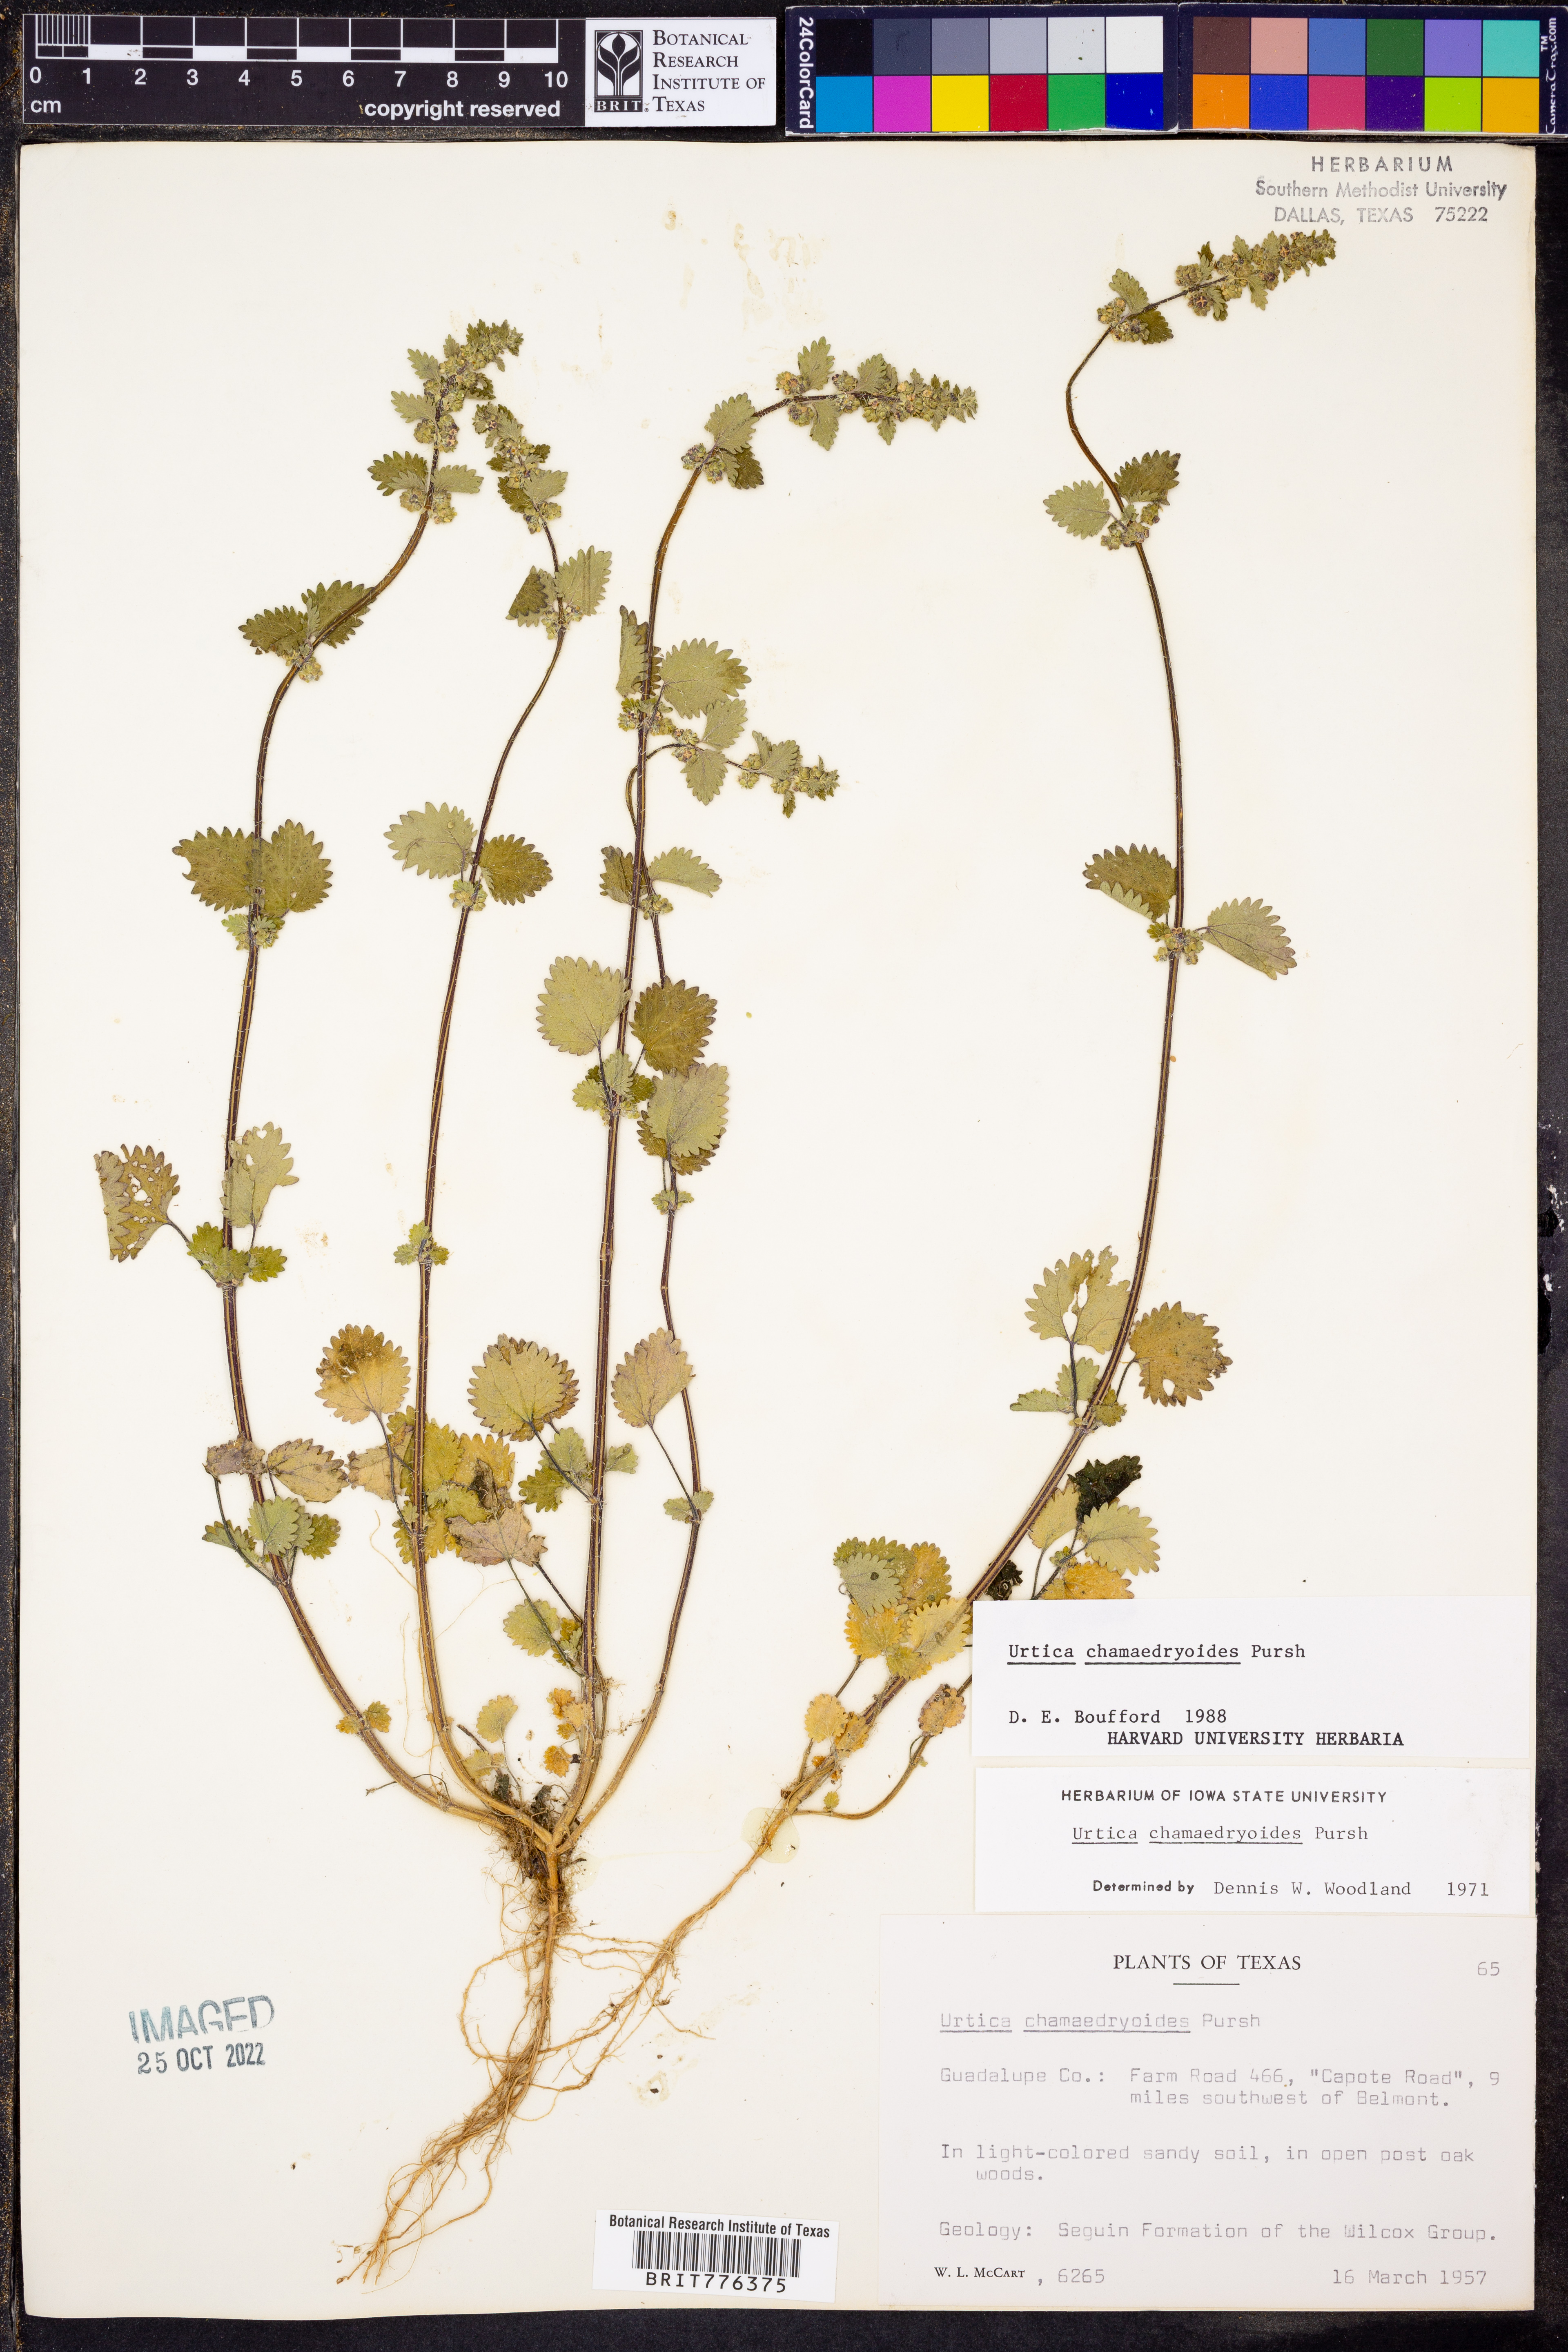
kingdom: Plantae
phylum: Tracheophyta
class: Magnoliopsida
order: Rosales
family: Urticaceae
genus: Urtica
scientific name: Urtica chamaedryoides
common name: Heart-leaf nettle
